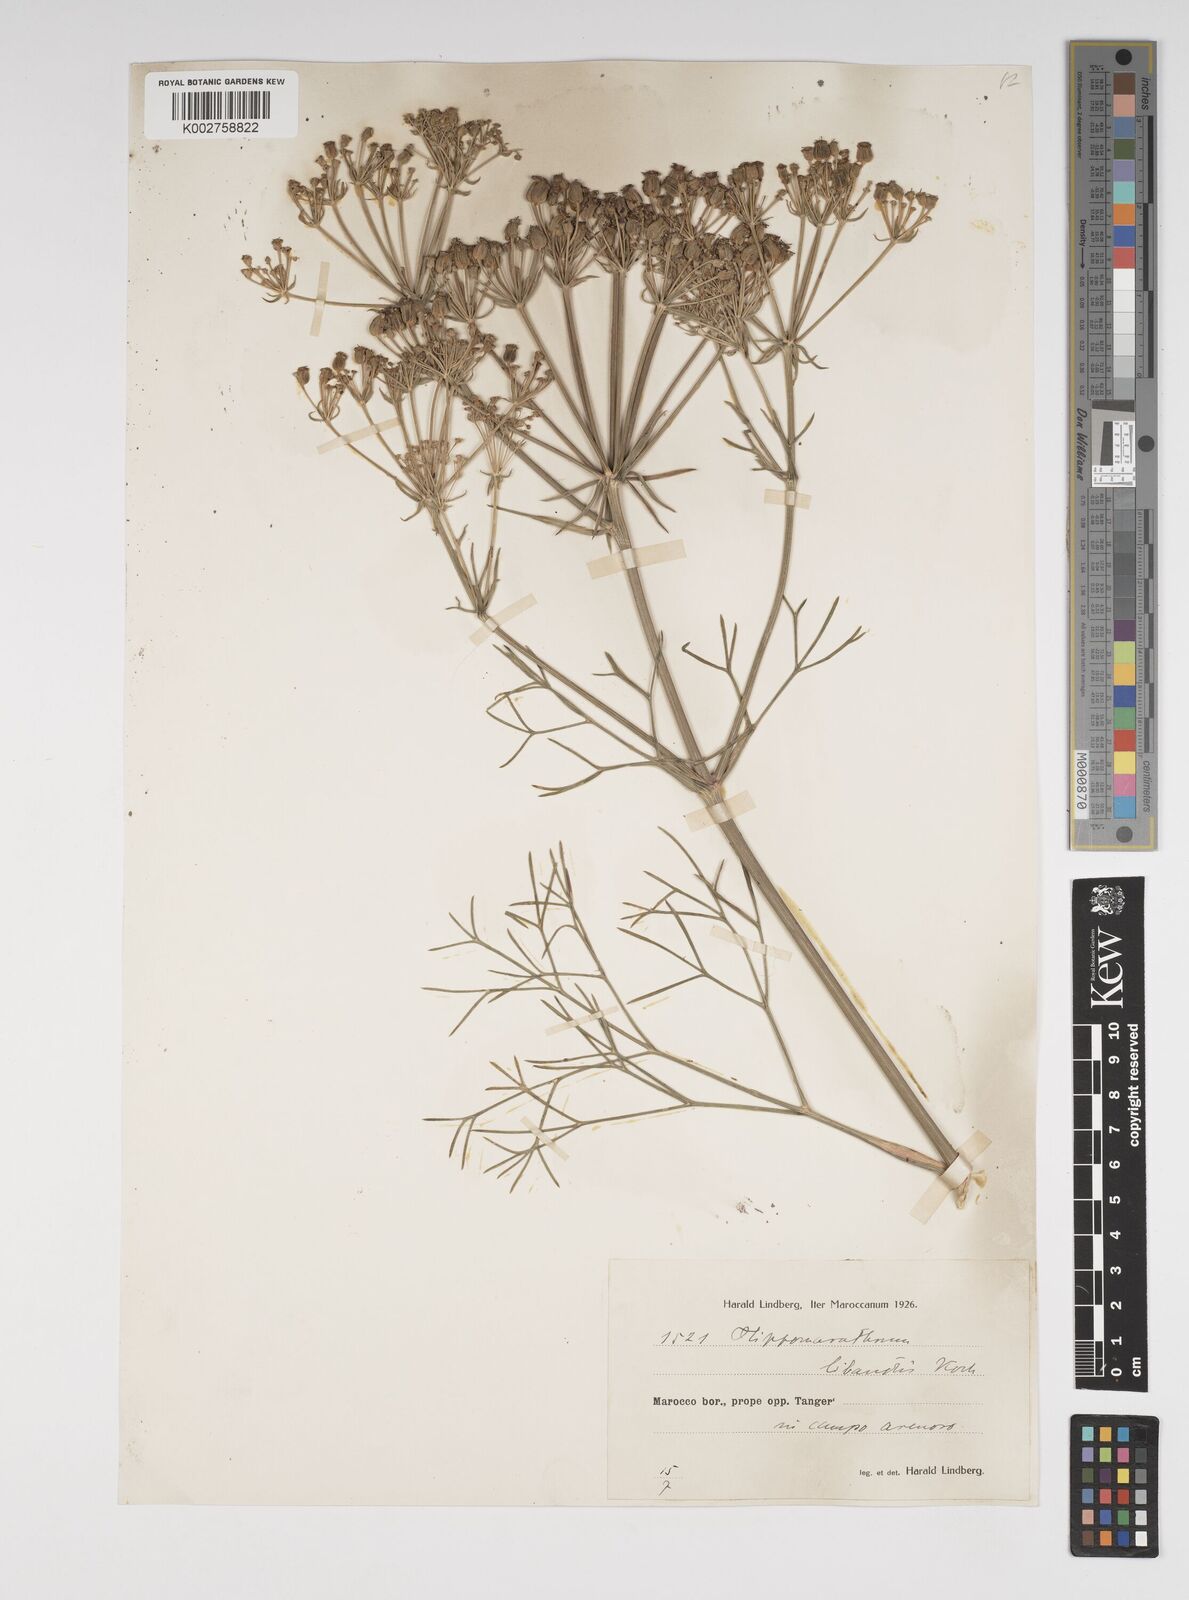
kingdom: Plantae
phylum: Tracheophyta
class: Magnoliopsida
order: Apiales
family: Apiaceae
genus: Bilacunaria
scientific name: Bilacunaria microcarpa
